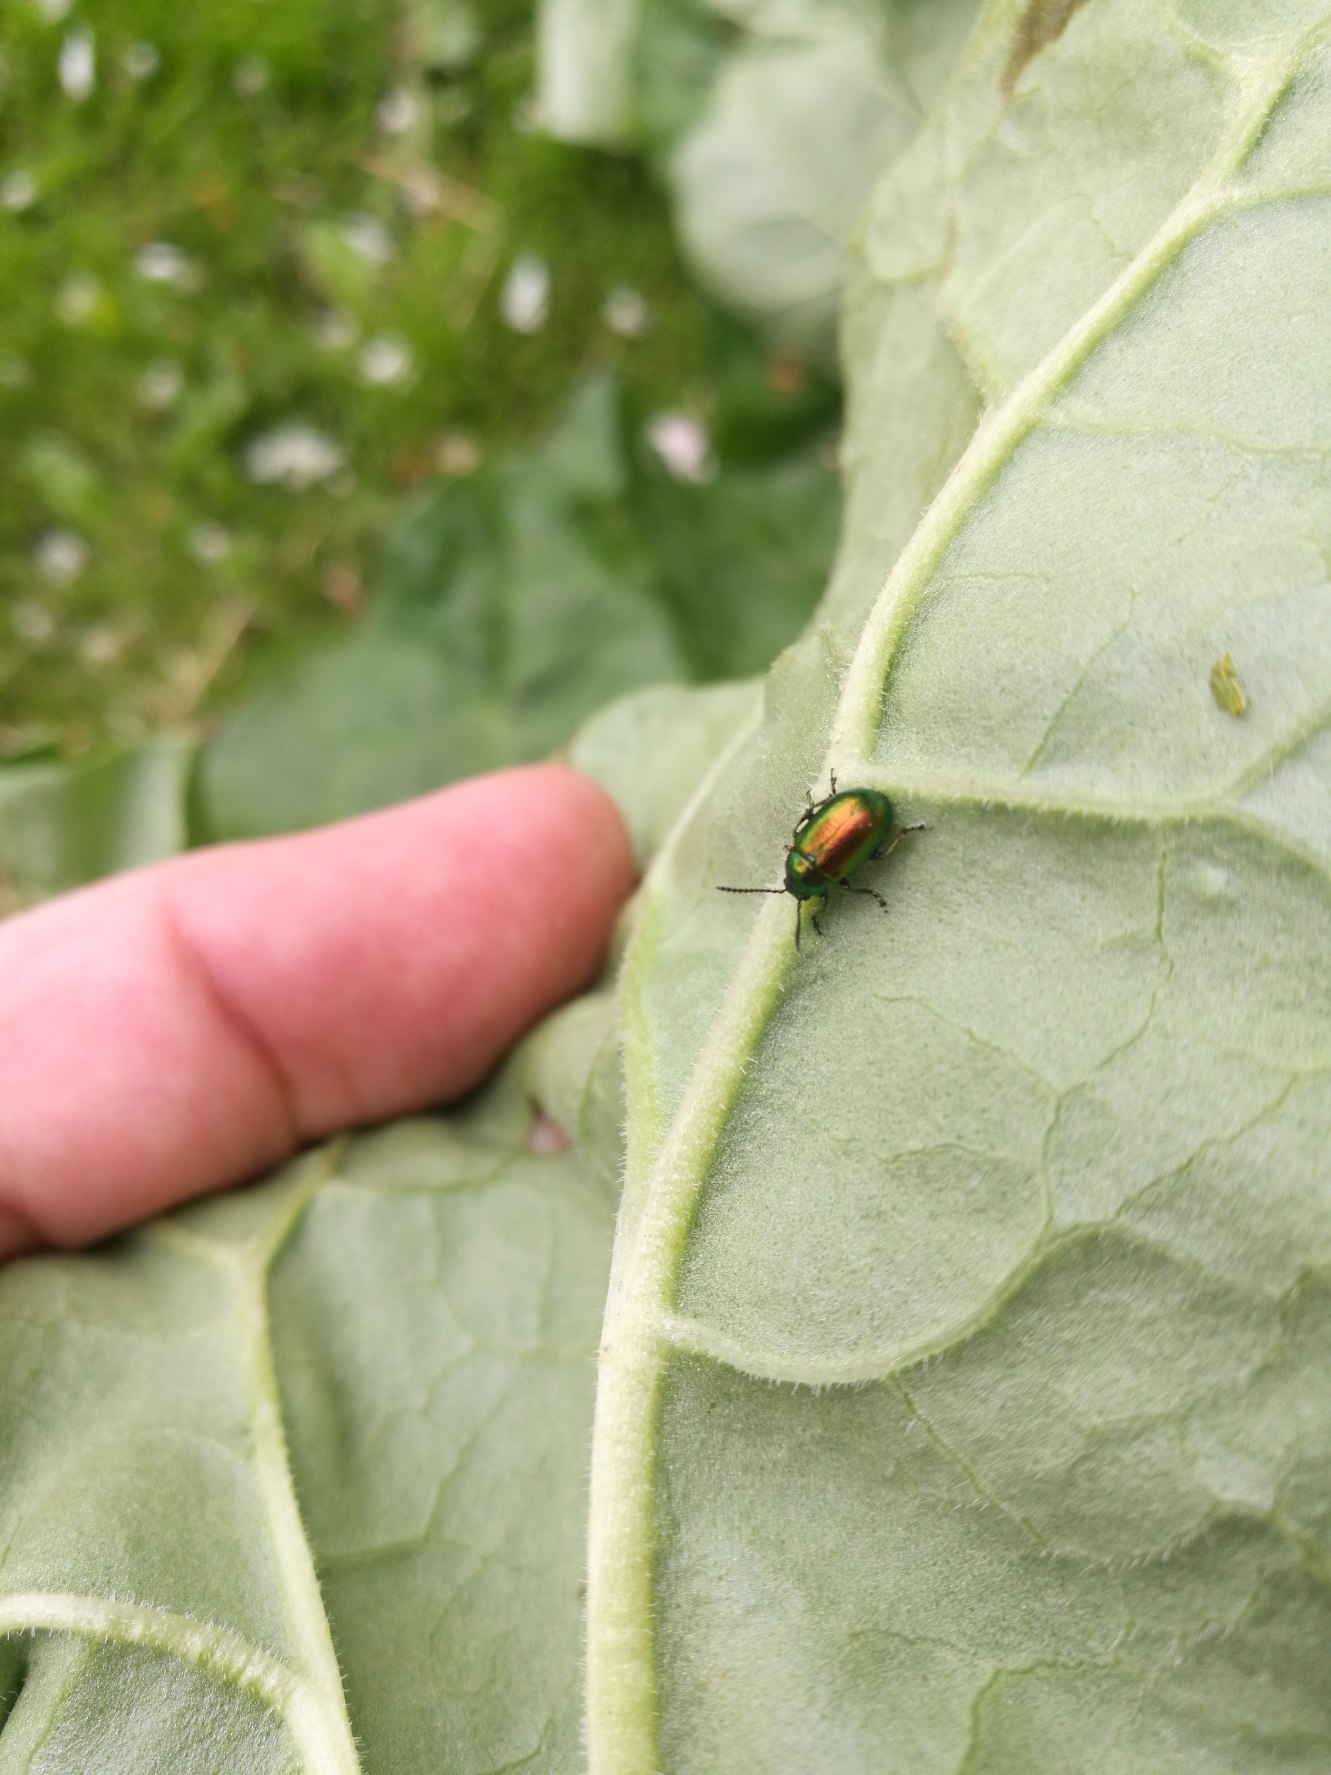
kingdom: Animalia
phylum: Arthropoda
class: Insecta
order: Coleoptera
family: Chrysomelidae
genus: Gastrophysa
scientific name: Gastrophysa viridula
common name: Skræppebladbille
